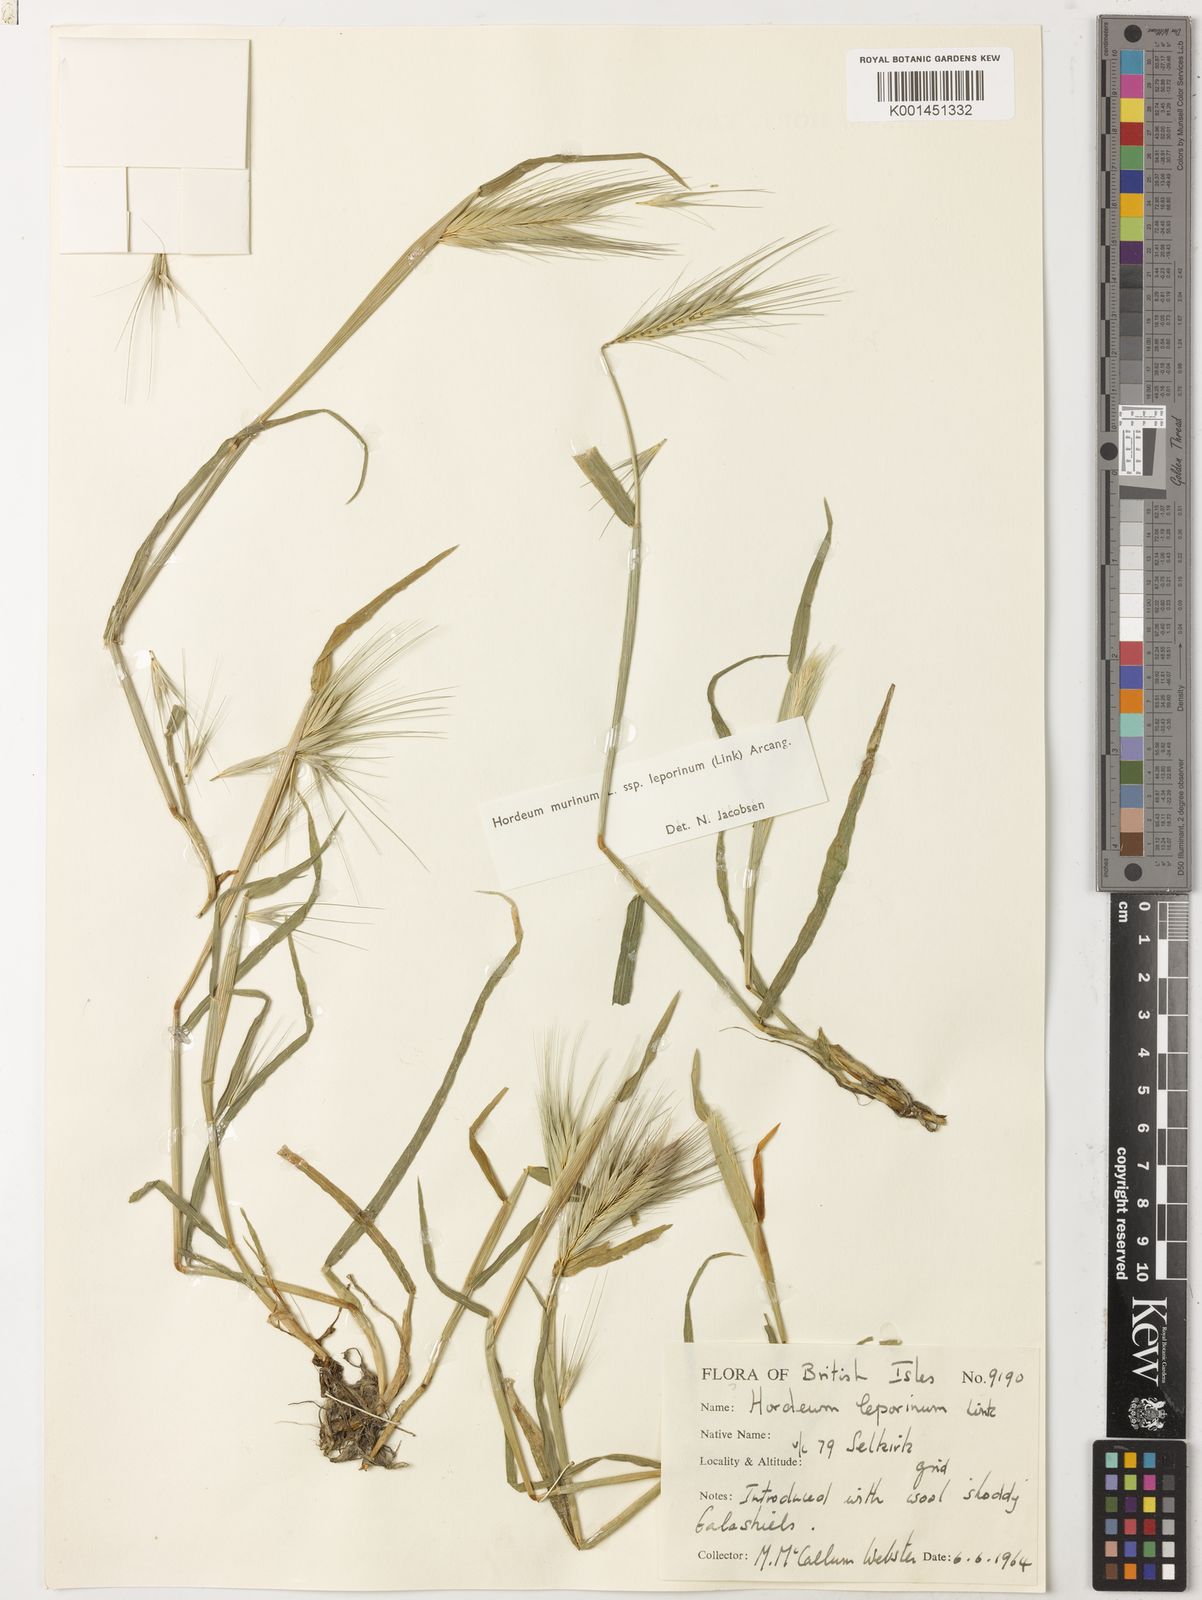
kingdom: Plantae
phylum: Tracheophyta
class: Liliopsida
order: Poales
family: Poaceae
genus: Hordeum
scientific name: Hordeum murinum
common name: Wall barley
